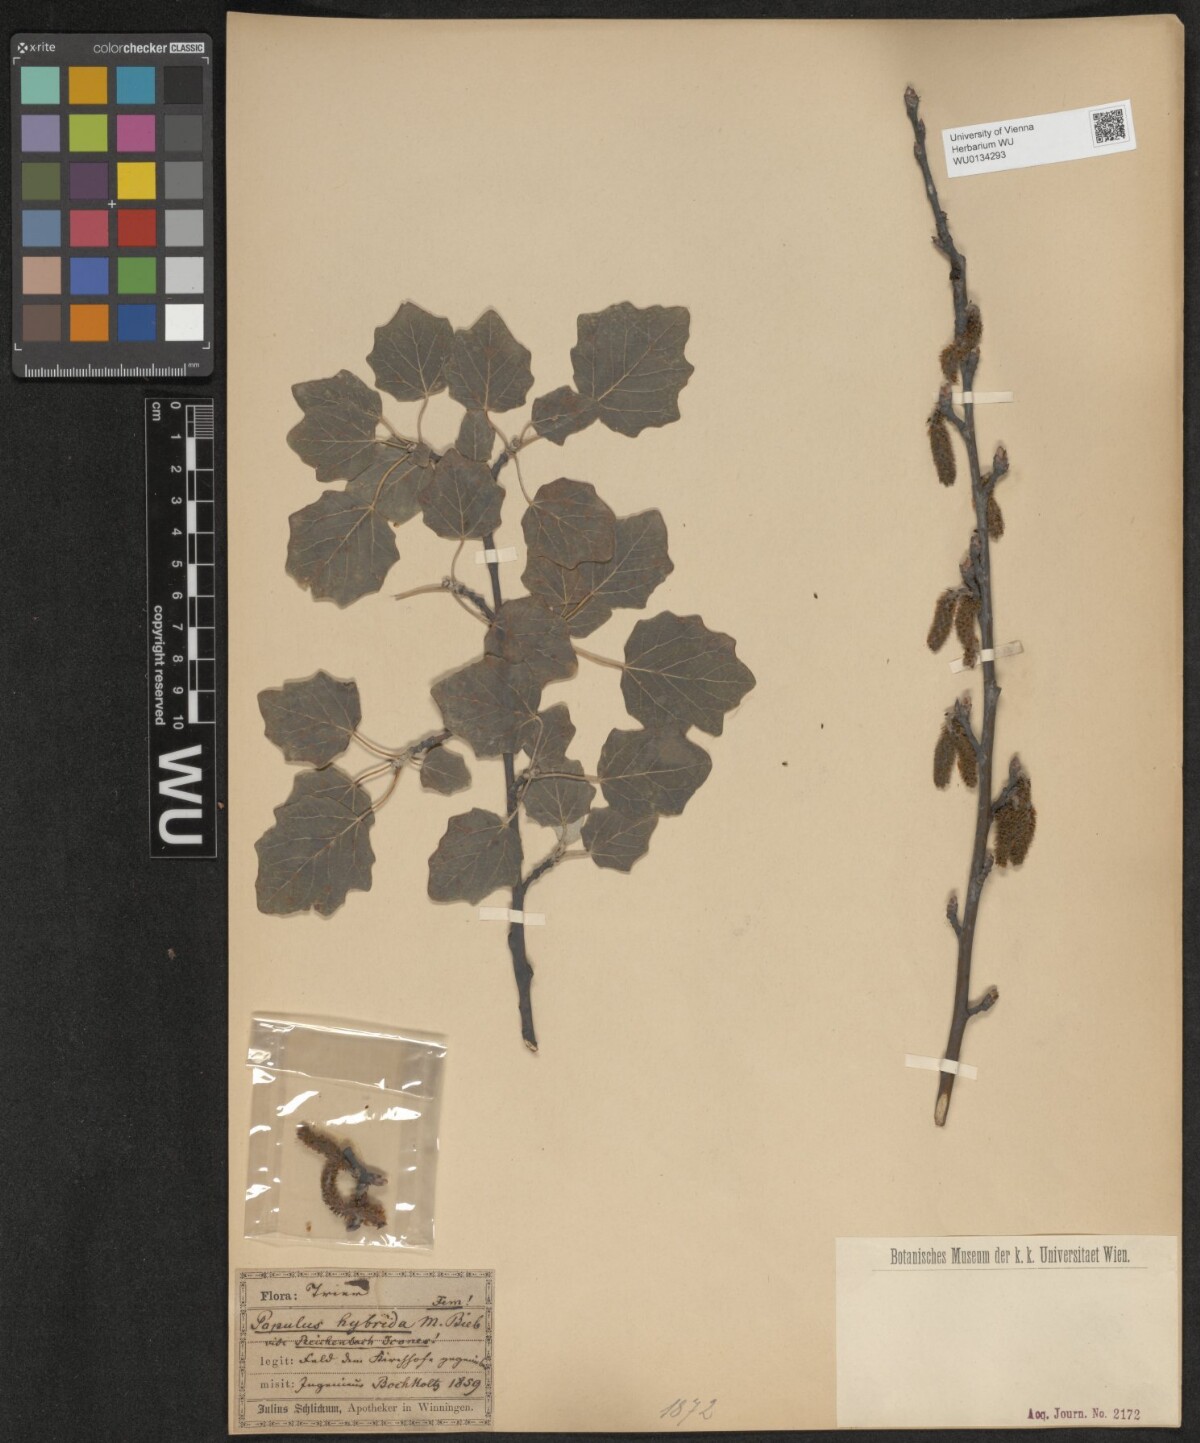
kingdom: Plantae
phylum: Tracheophyta
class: Magnoliopsida
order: Malpighiales
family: Salicaceae
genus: Populus
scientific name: Populus canescens
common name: Gray poplar
